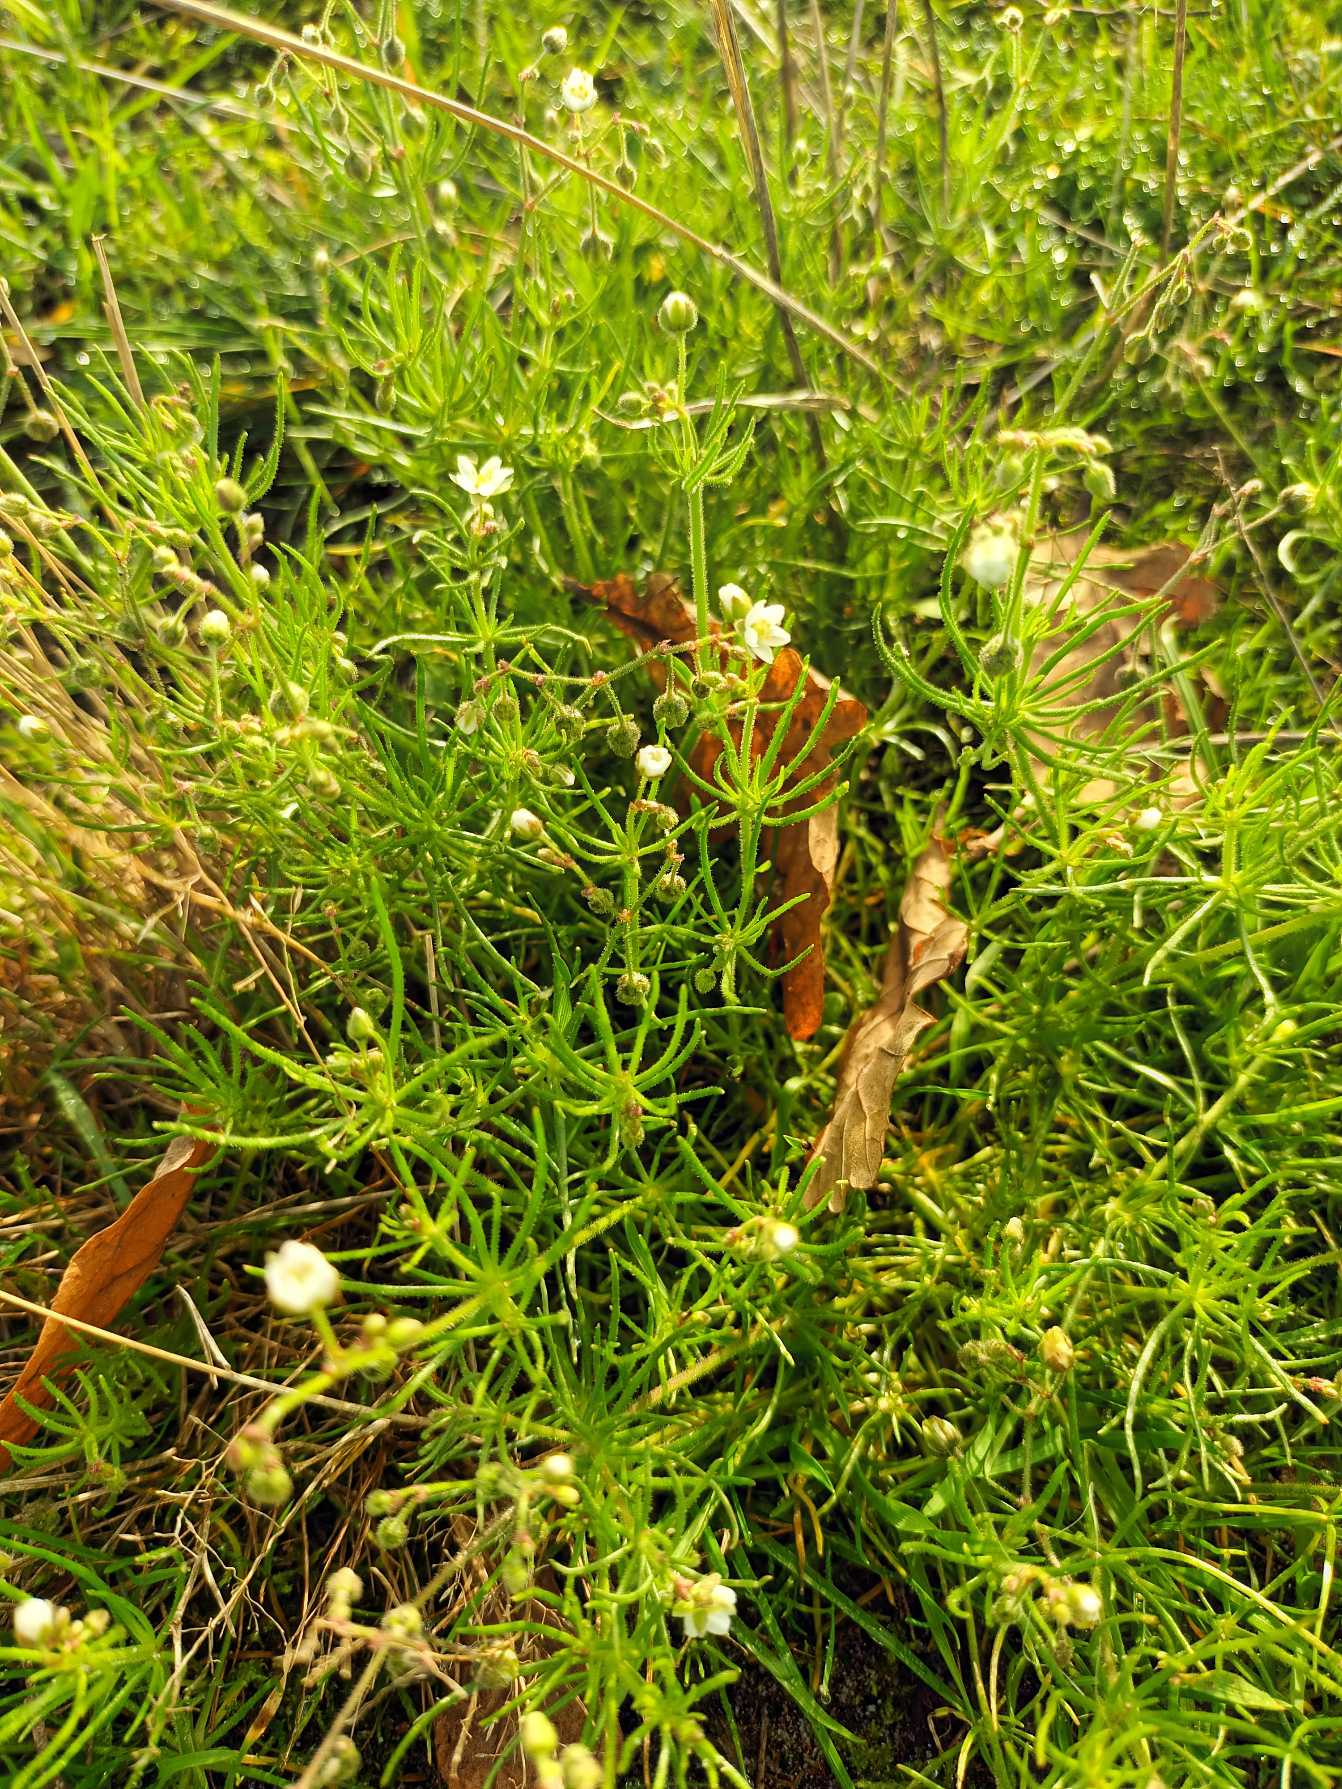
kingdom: Plantae
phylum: Tracheophyta
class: Magnoliopsida
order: Caryophyllales
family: Caryophyllaceae
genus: Spergula
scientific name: Spergula arvensis
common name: Almindelig spergel (underart)
